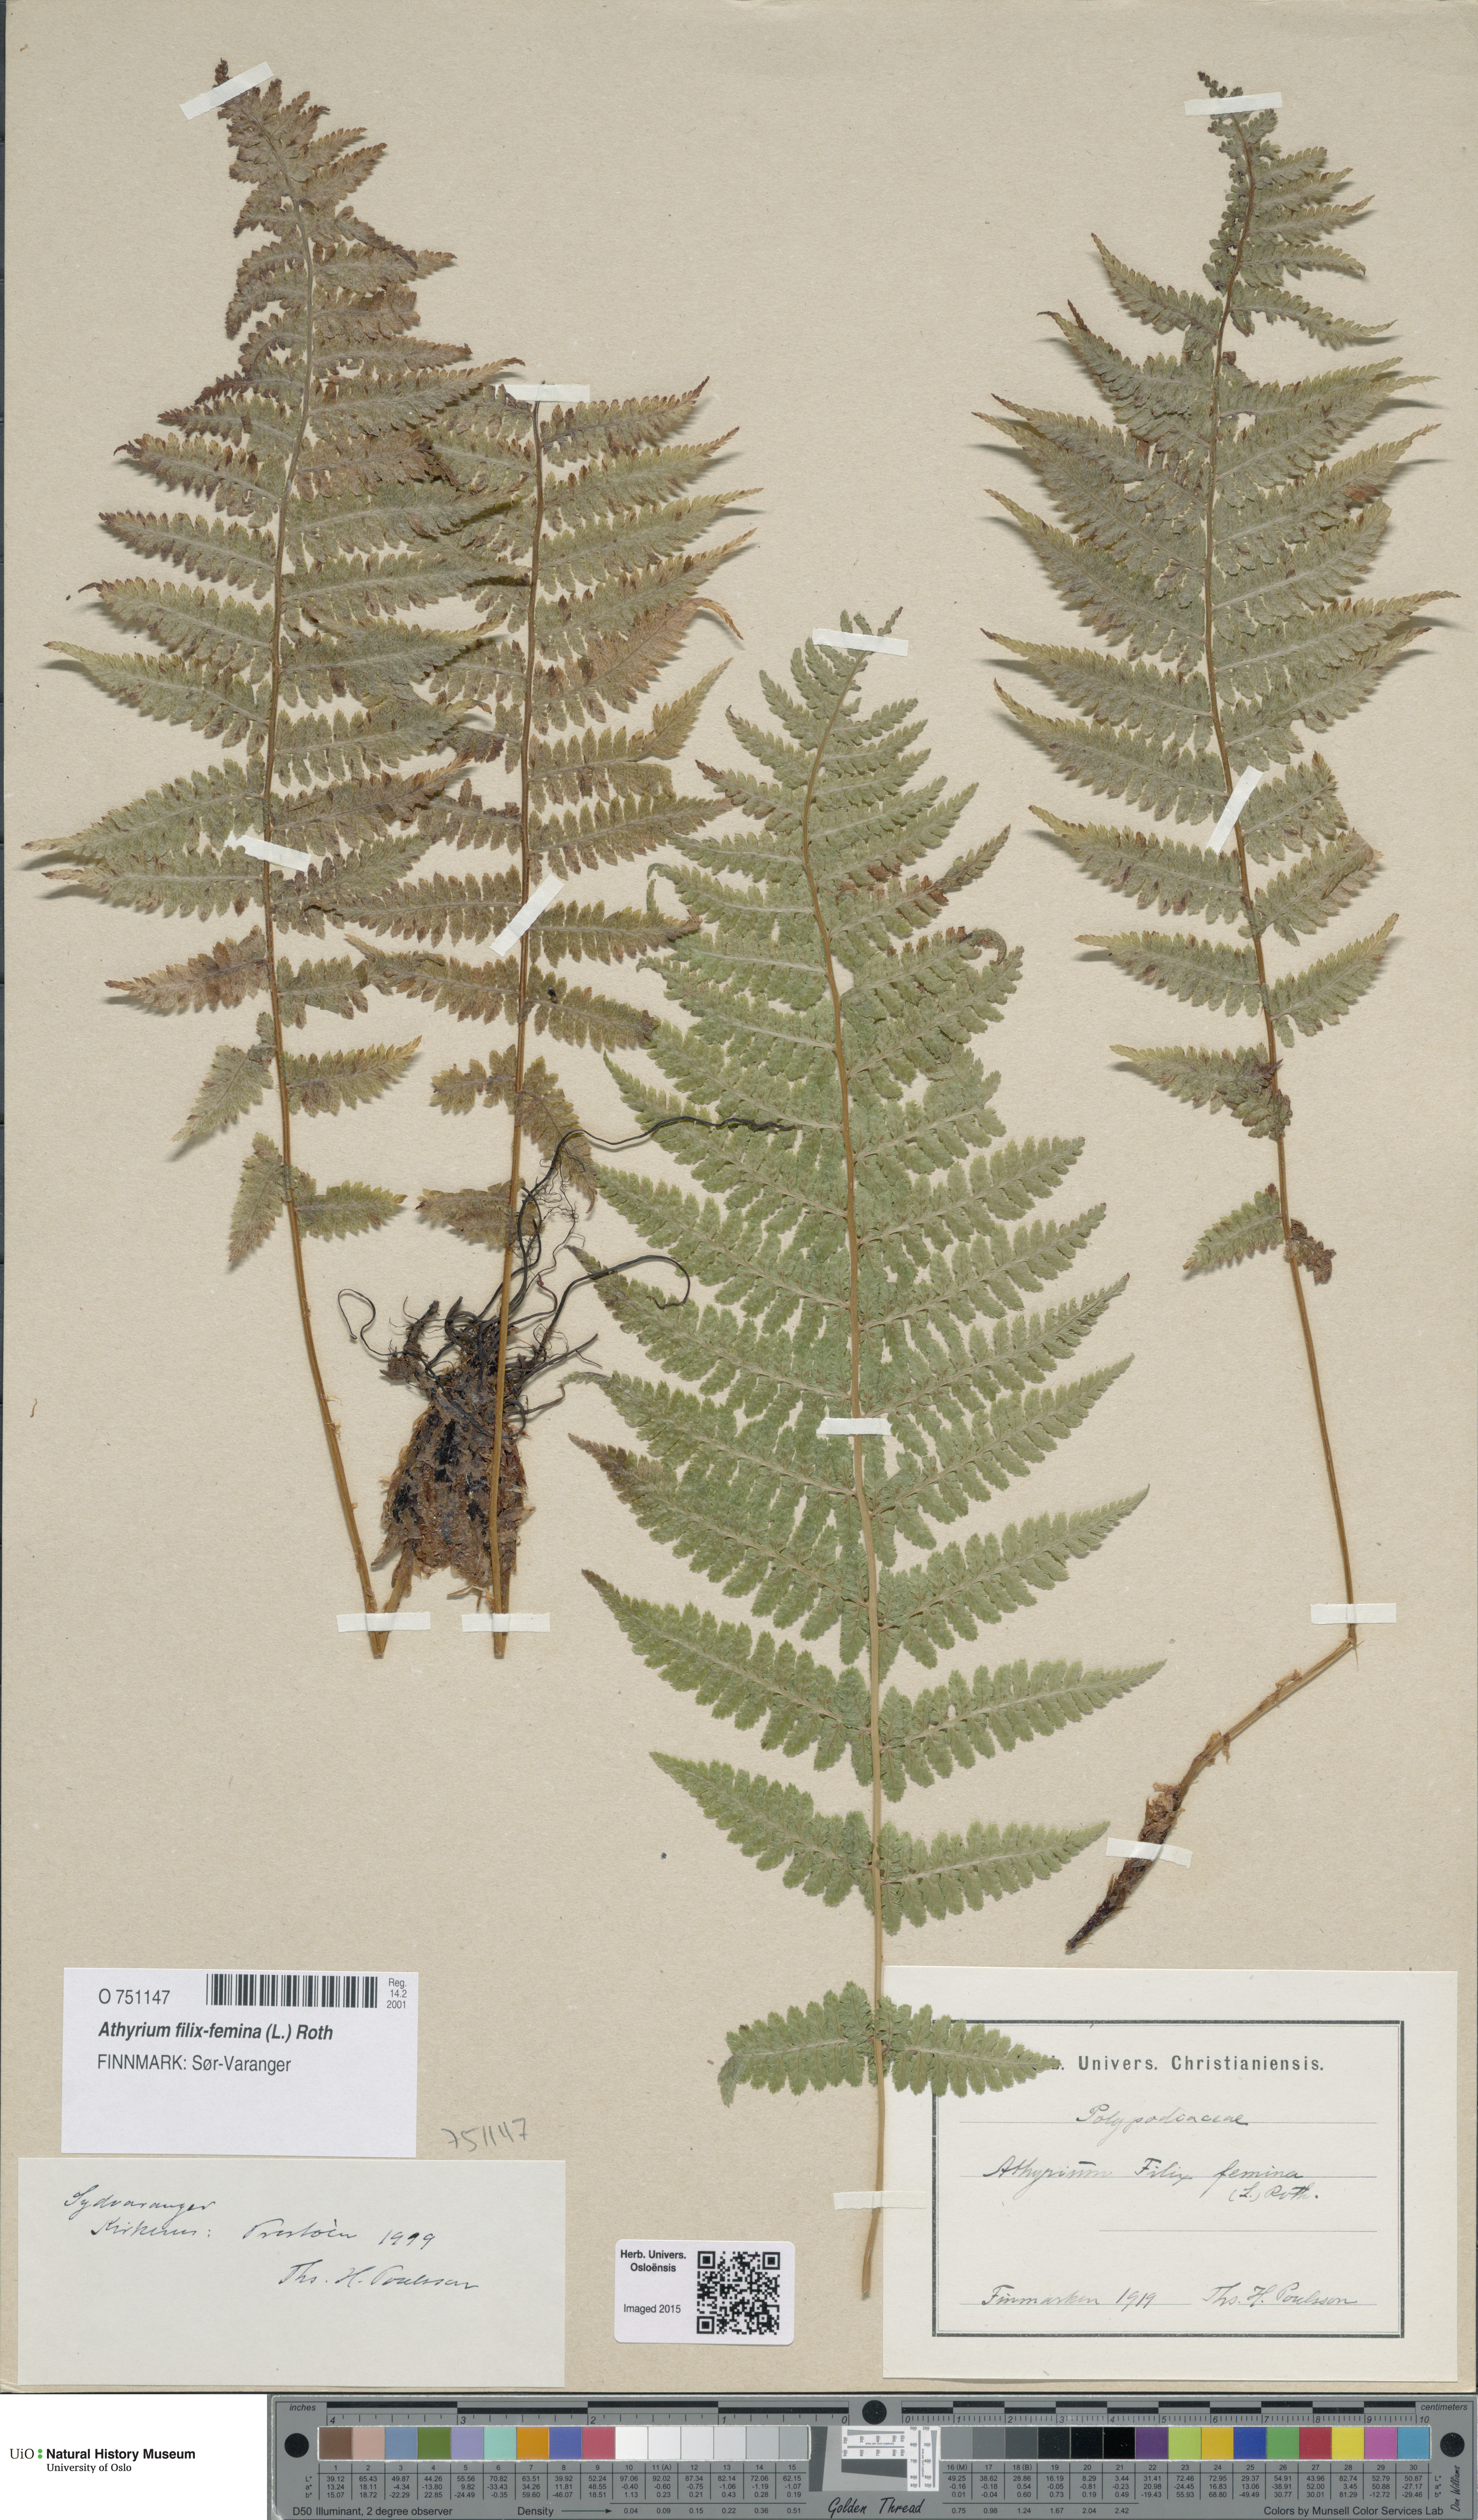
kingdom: Plantae
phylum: Tracheophyta
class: Polypodiopsida
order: Polypodiales
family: Athyriaceae
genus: Athyrium
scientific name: Athyrium filix-femina
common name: Lady fern
